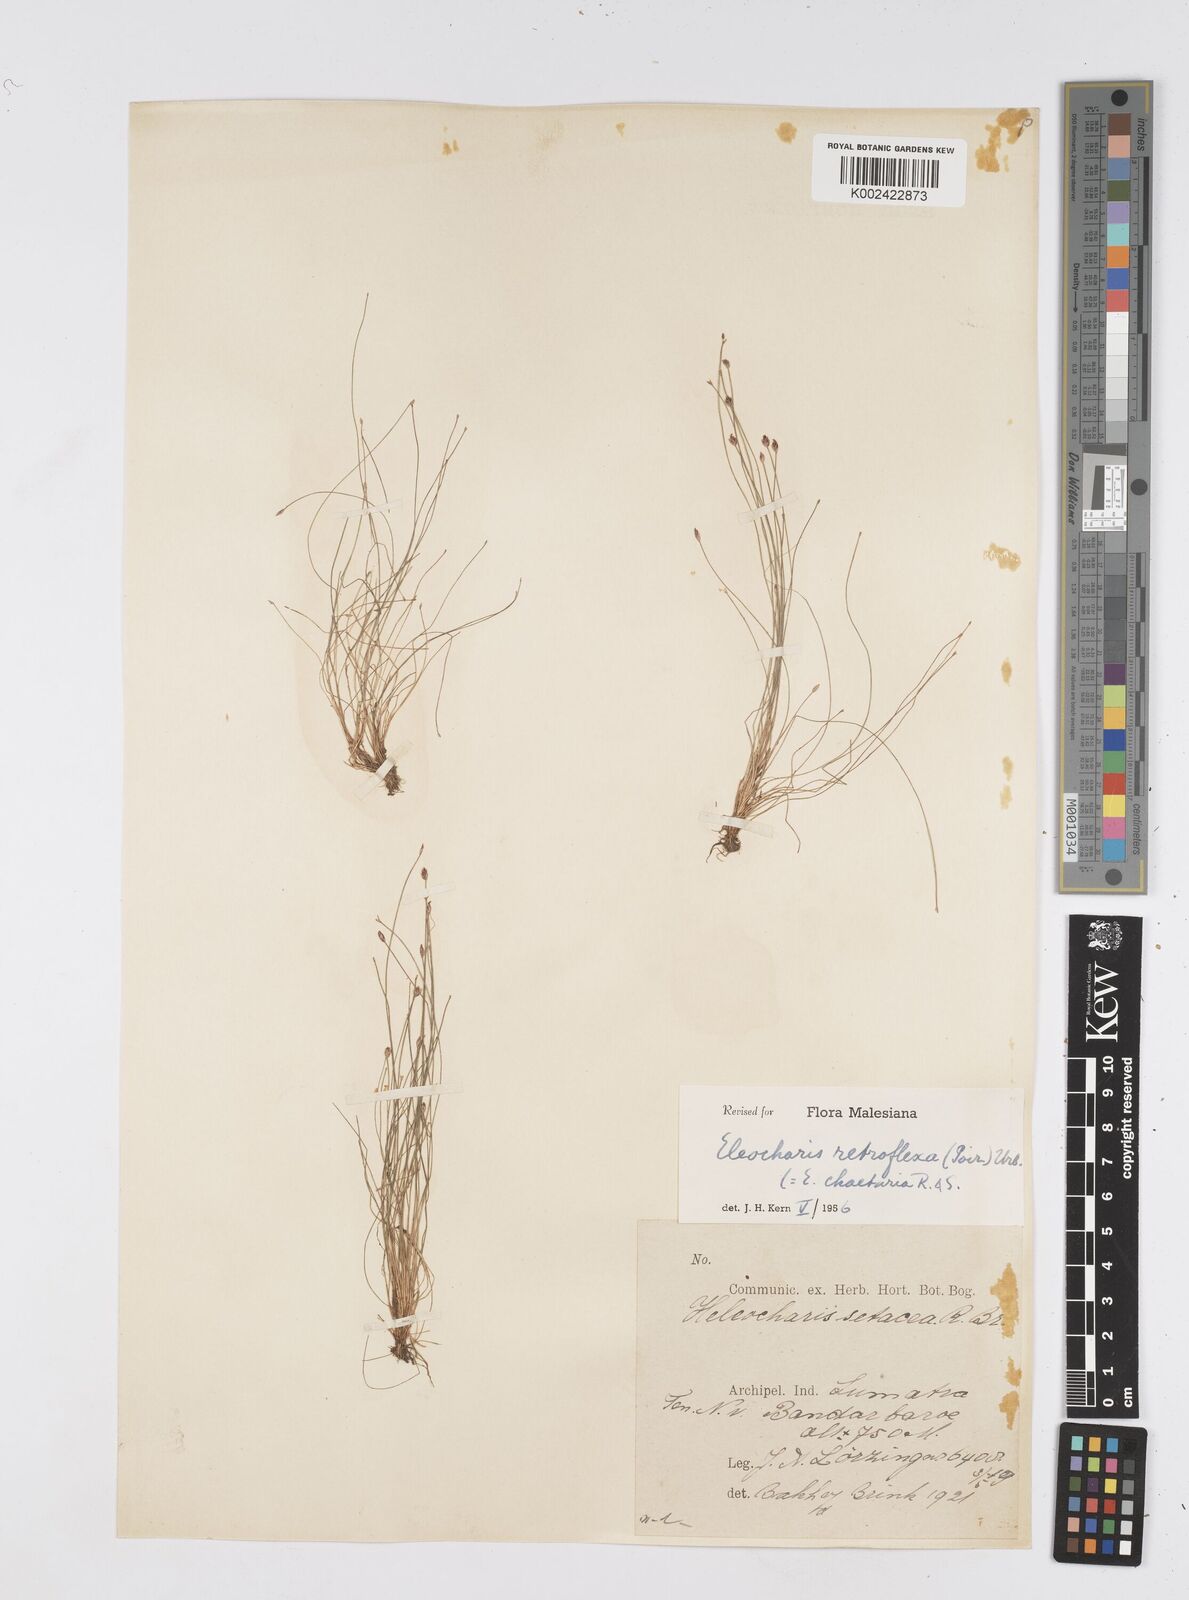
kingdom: Plantae
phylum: Tracheophyta
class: Liliopsida
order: Poales
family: Cyperaceae
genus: Eleocharis
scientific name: Eleocharis retroflexa
